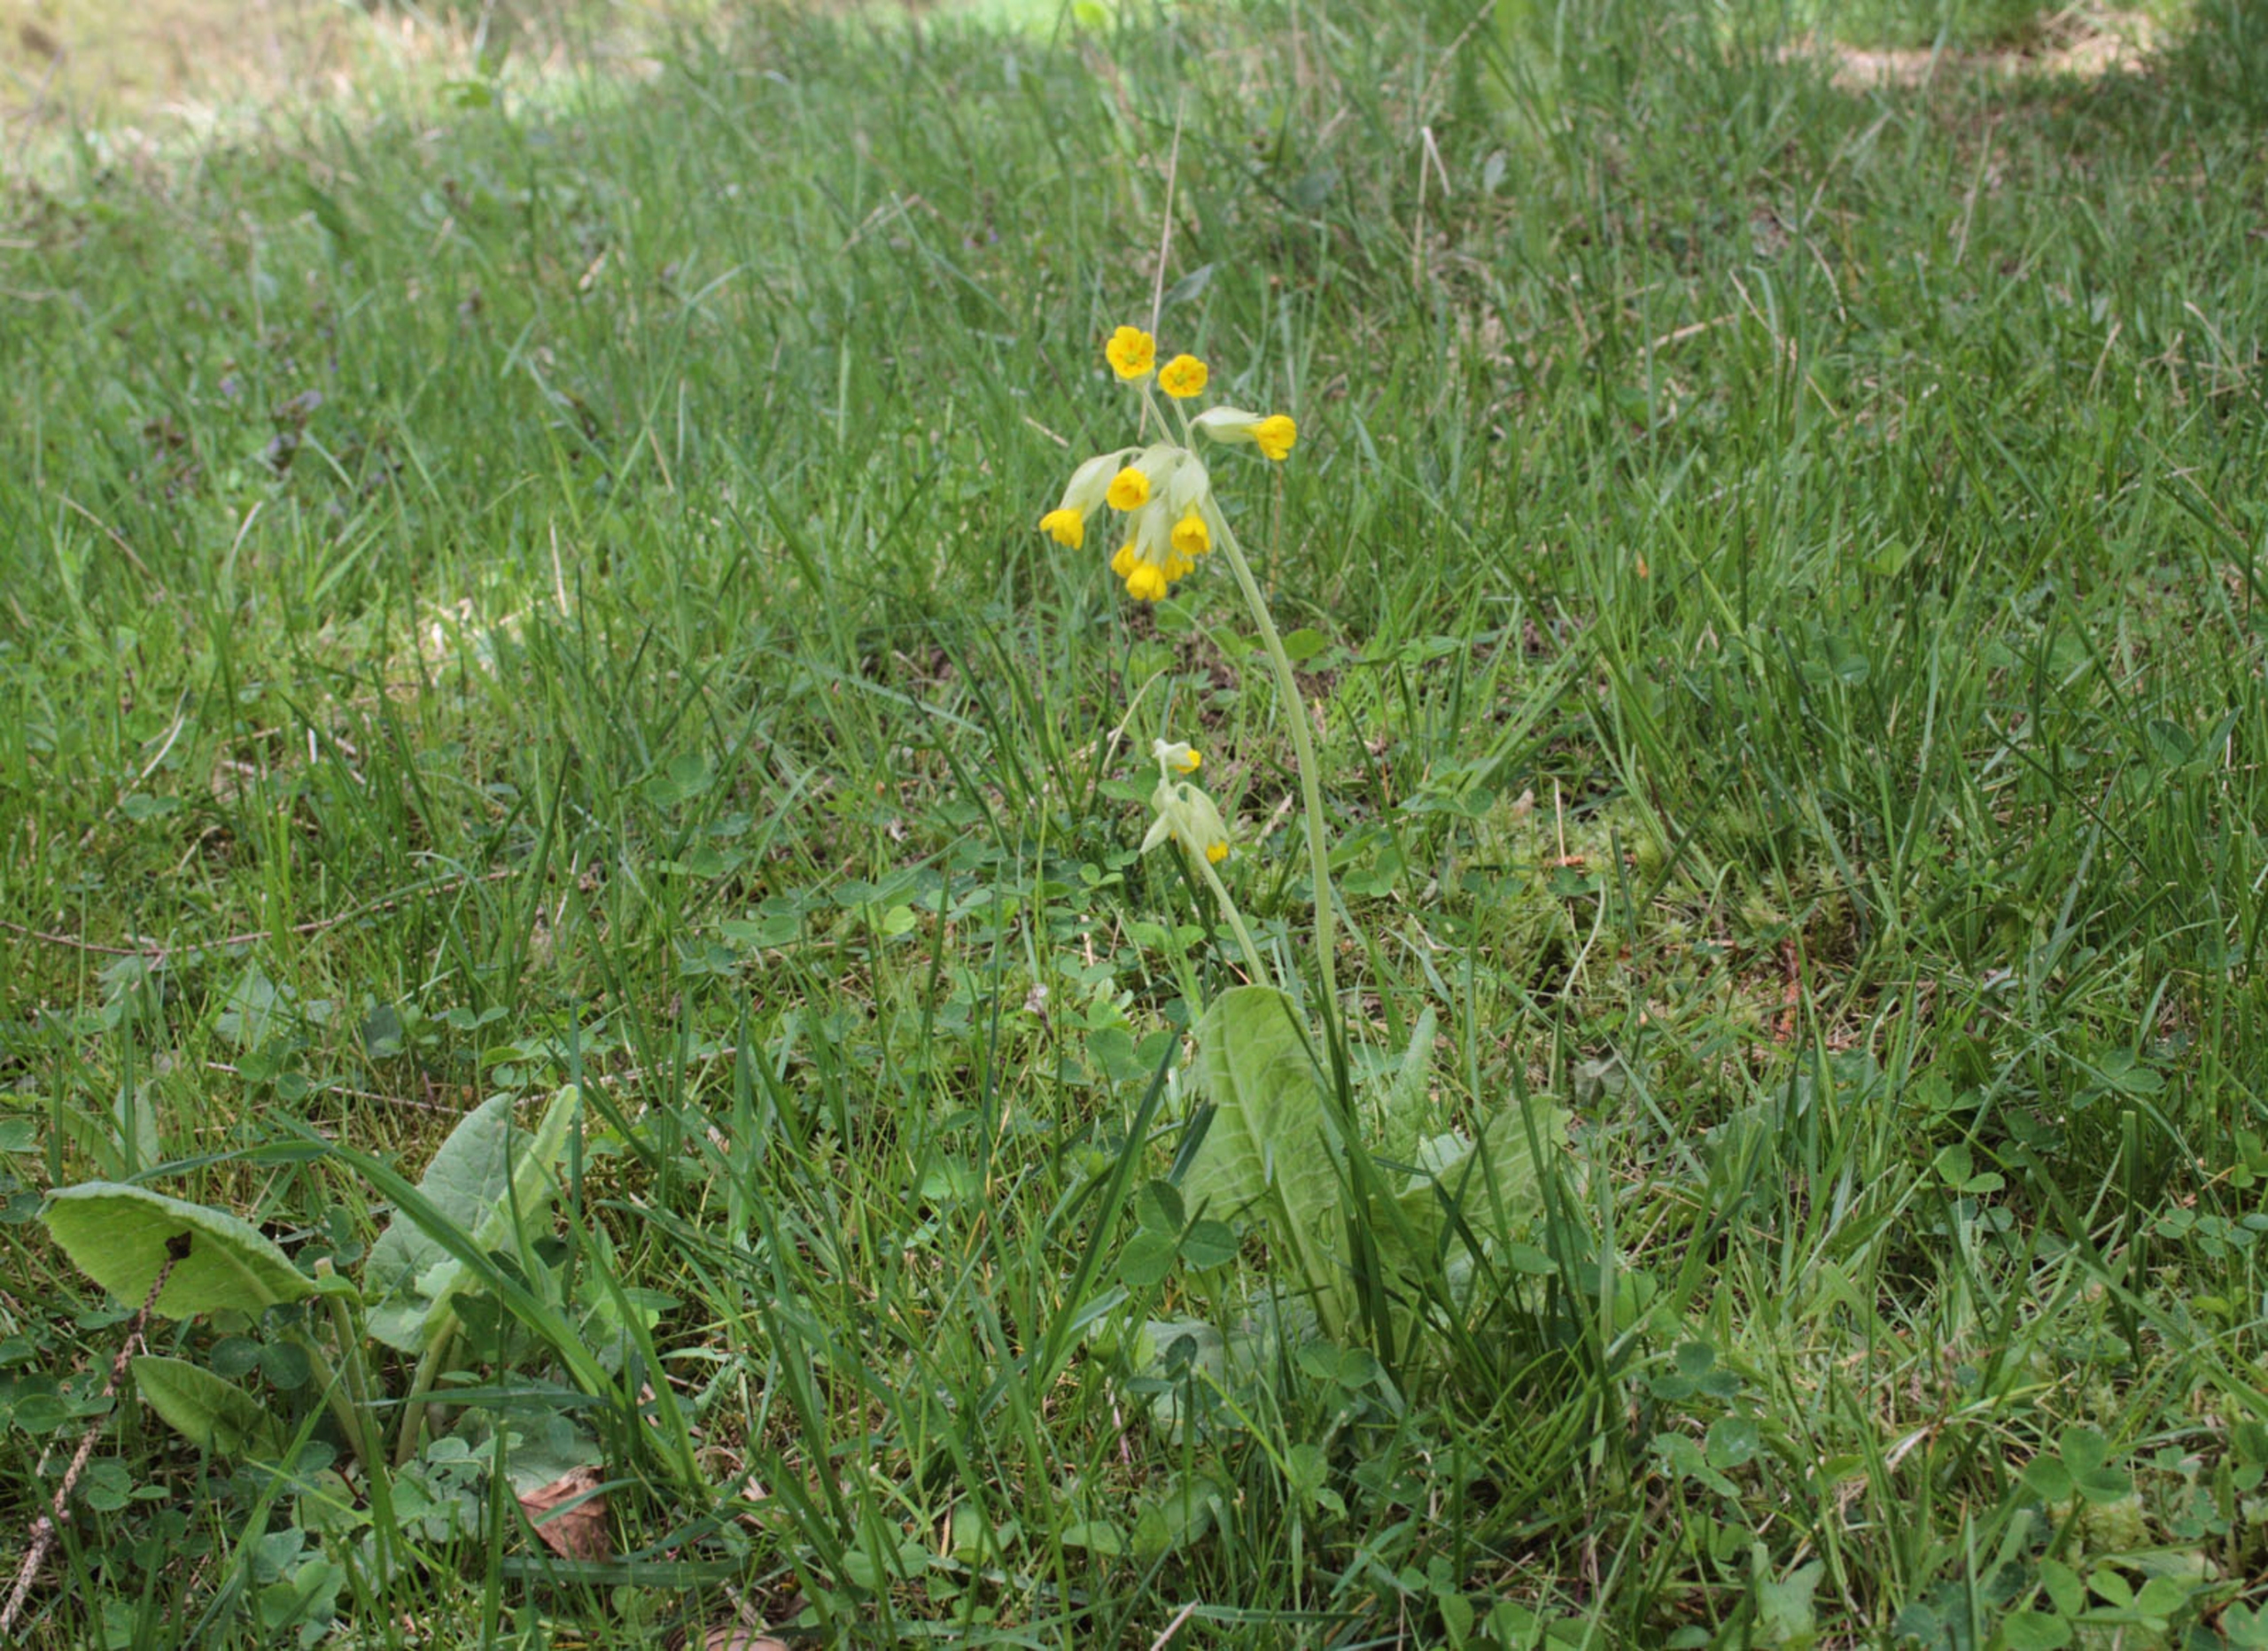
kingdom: Plantae
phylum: Tracheophyta
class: Magnoliopsida
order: Ericales
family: Primulaceae
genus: Primula
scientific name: Primula veris
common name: Hulkravet kodriver
